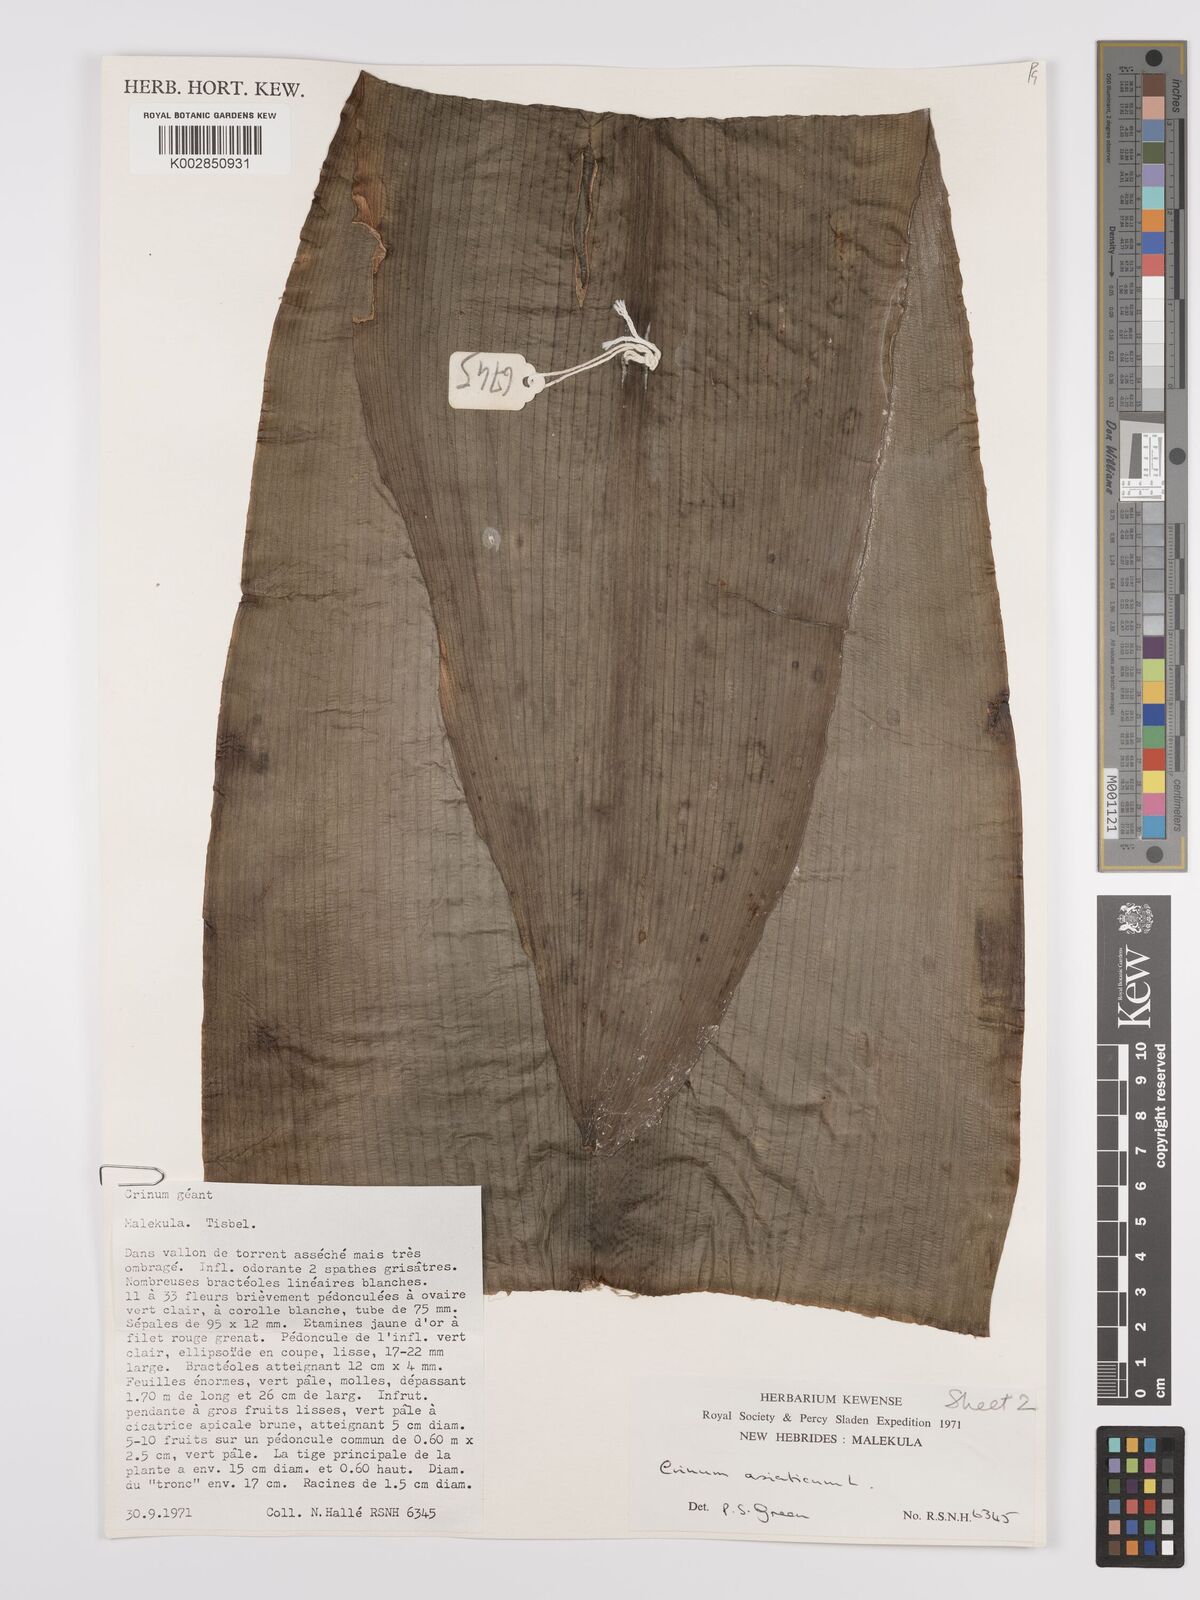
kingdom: Plantae
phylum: Tracheophyta
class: Liliopsida
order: Asparagales
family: Amaryllidaceae
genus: Crinum
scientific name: Crinum asiaticum
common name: Poisonbulb
